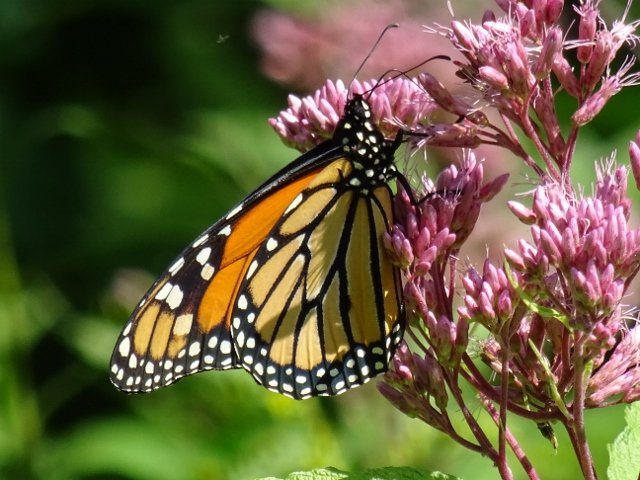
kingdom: Animalia
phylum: Arthropoda
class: Insecta
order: Lepidoptera
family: Nymphalidae
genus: Danaus
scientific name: Danaus plexippus
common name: Monarch
